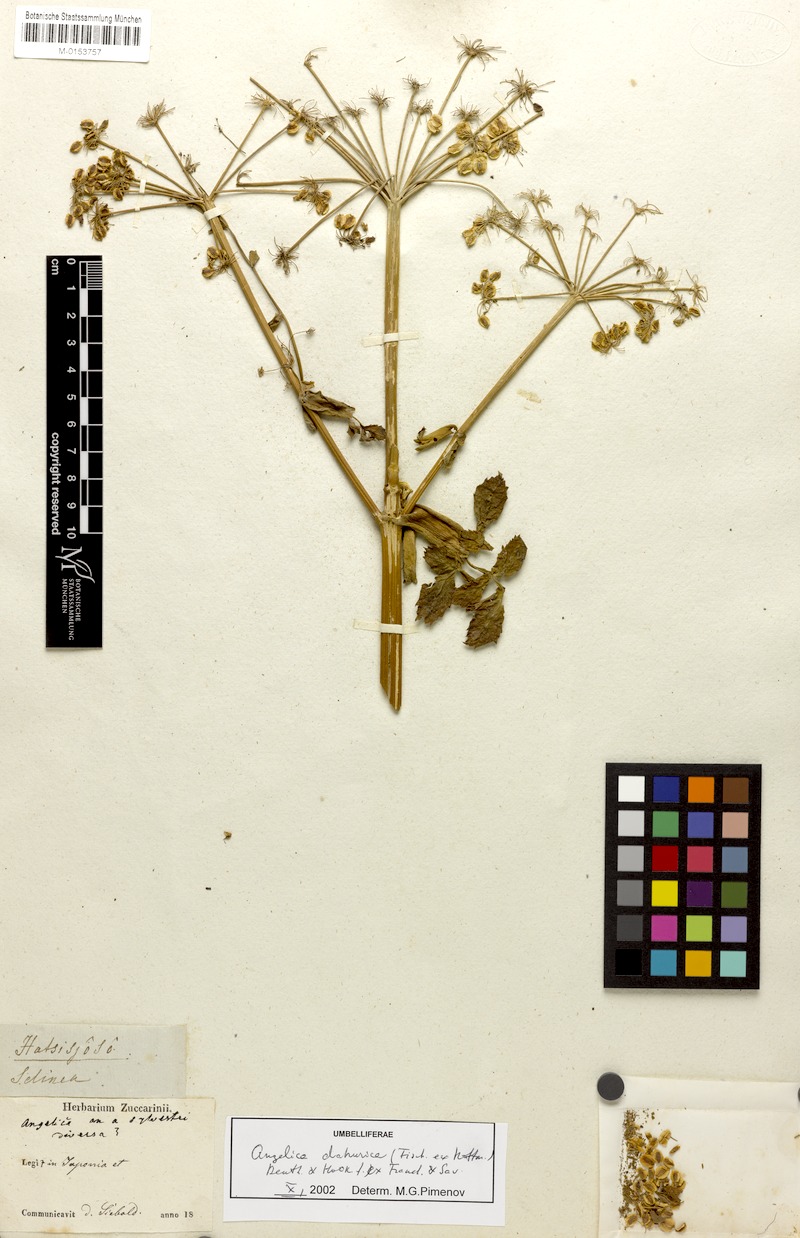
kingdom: Plantae
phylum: Tracheophyta
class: Magnoliopsida
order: Apiales
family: Apiaceae
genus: Angelica
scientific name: Angelica dahurica
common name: Dahurian angelica
